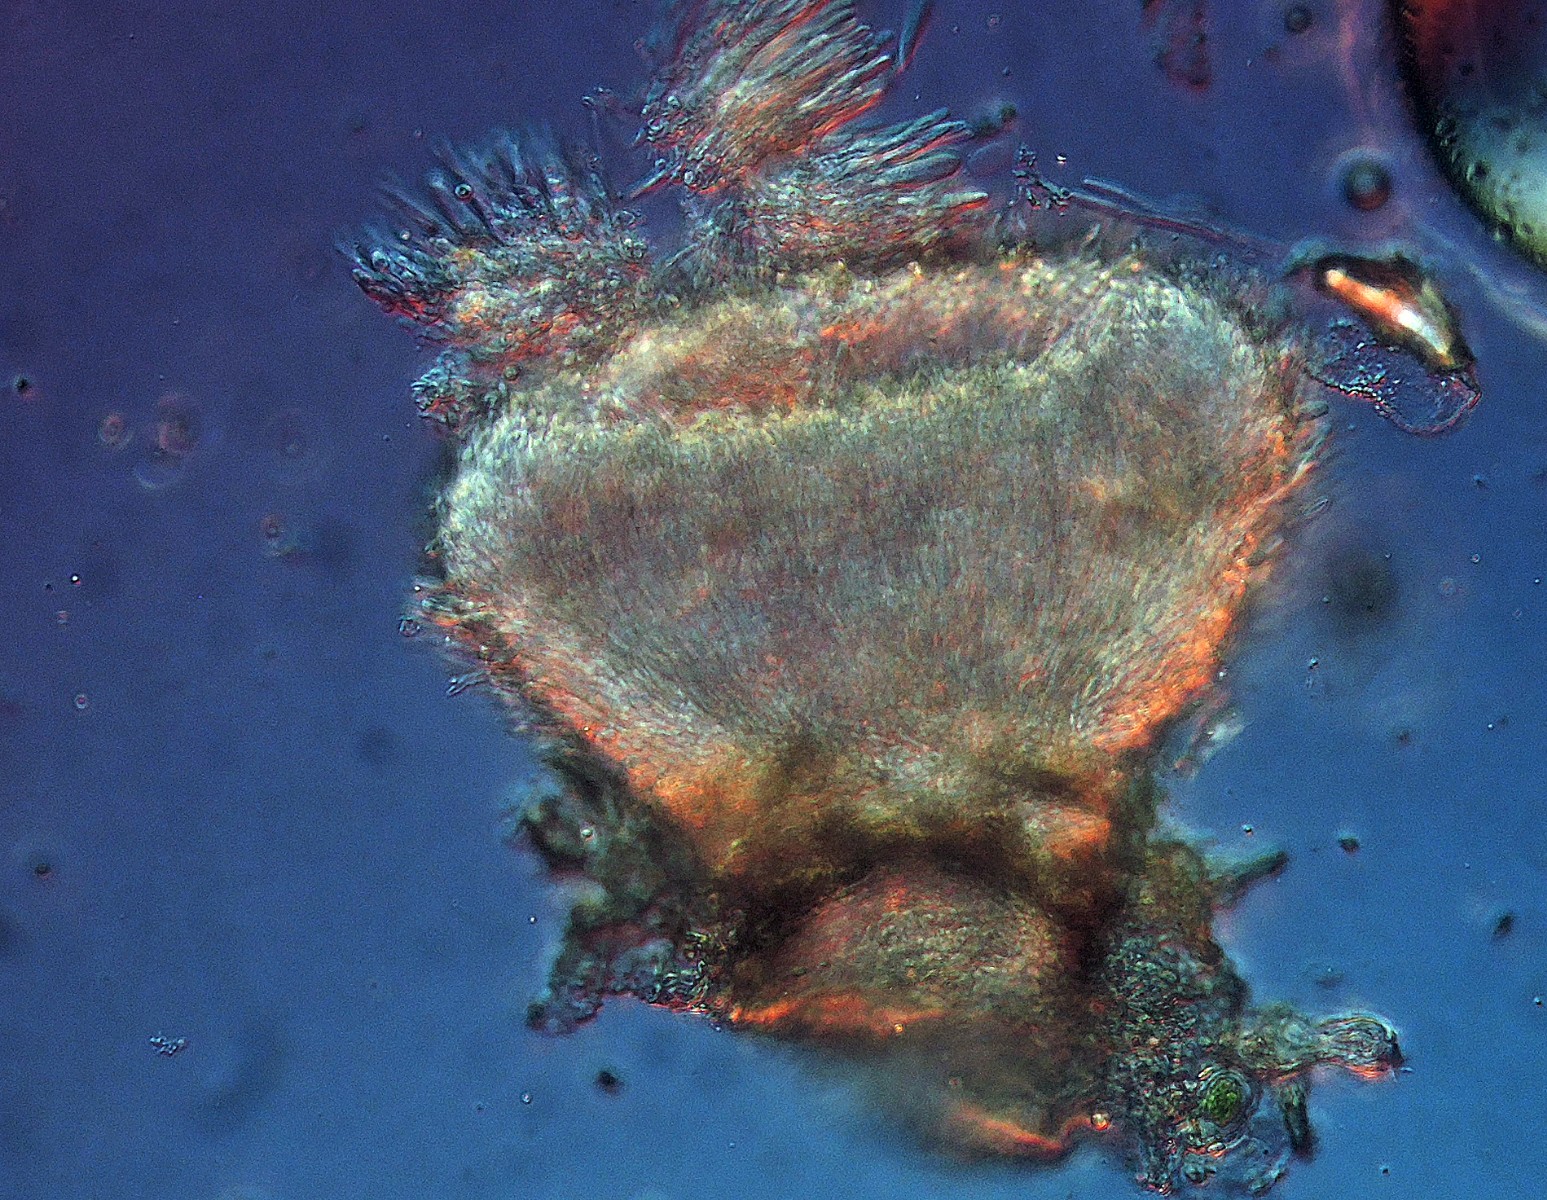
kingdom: Fungi
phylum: Ascomycota
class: Leotiomycetes
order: Helotiales
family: Hyaloscyphaceae
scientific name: Hyaloscyphaceae
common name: frynseskivefamilien
